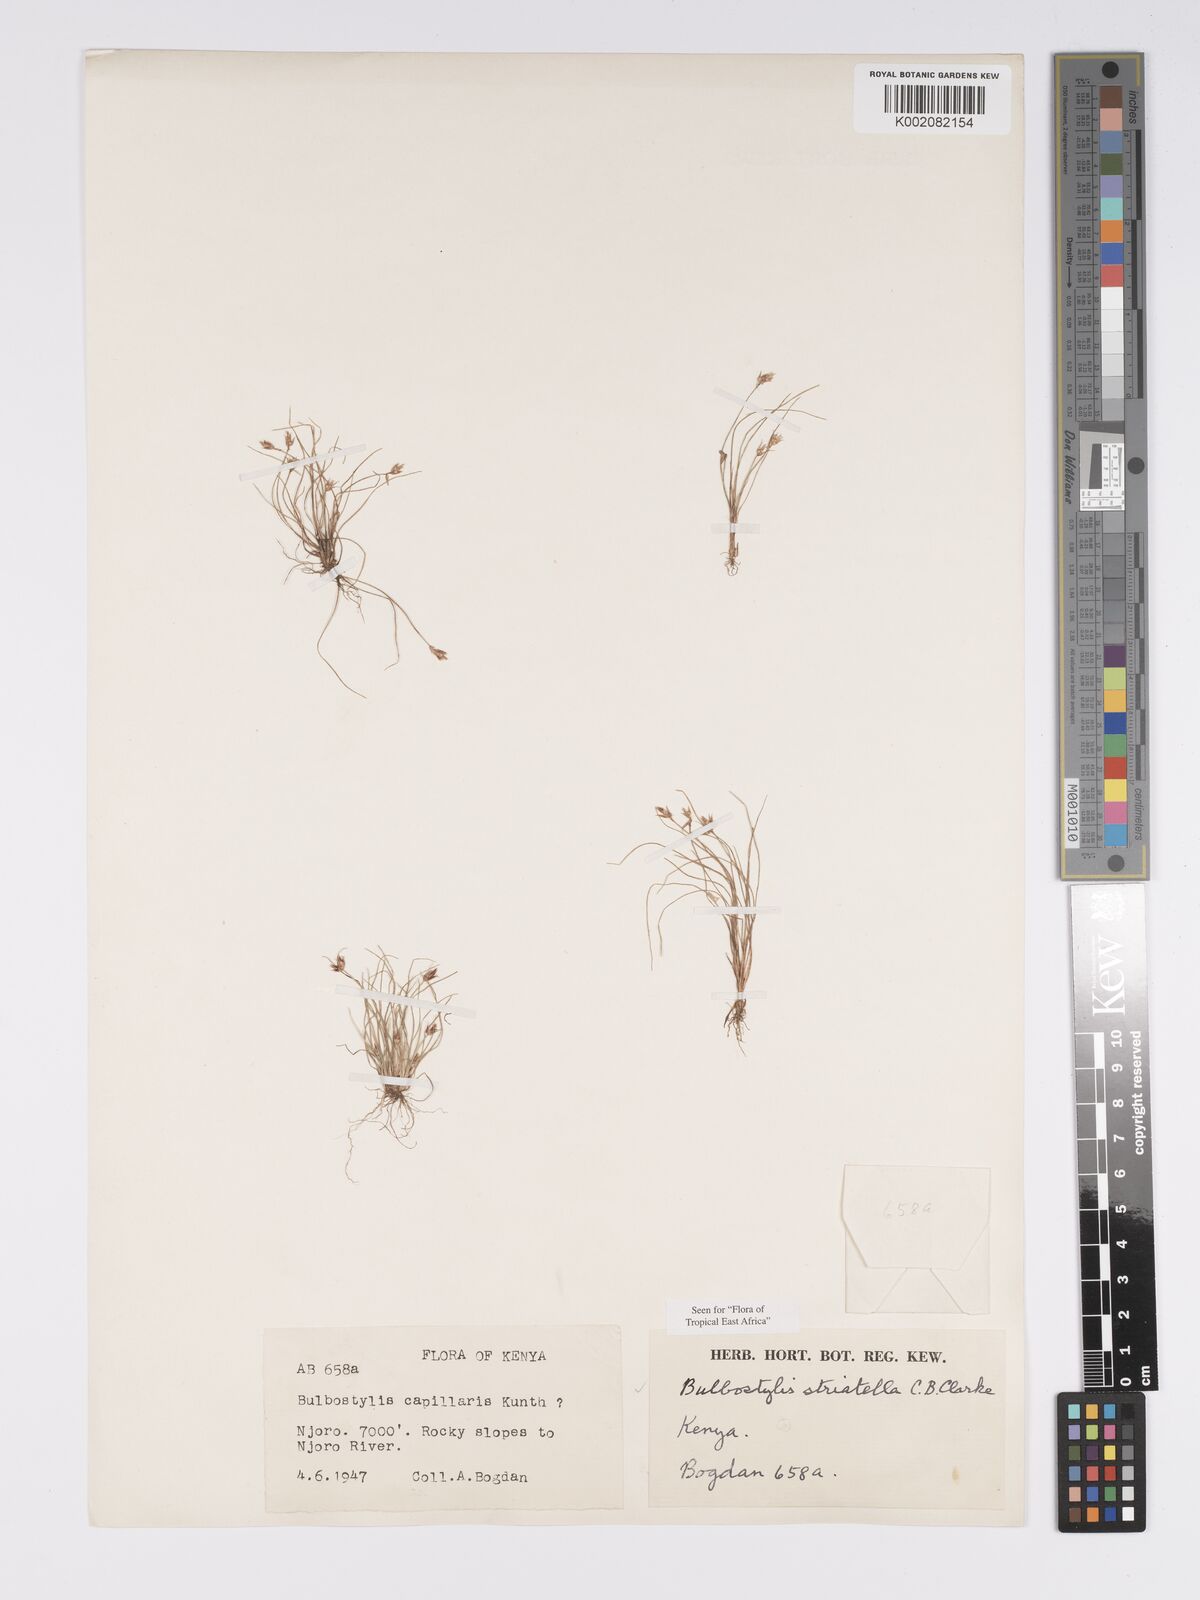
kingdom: Plantae
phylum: Tracheophyta
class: Liliopsida
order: Poales
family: Cyperaceae
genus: Bulbostylis
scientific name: Bulbostylis humilis
